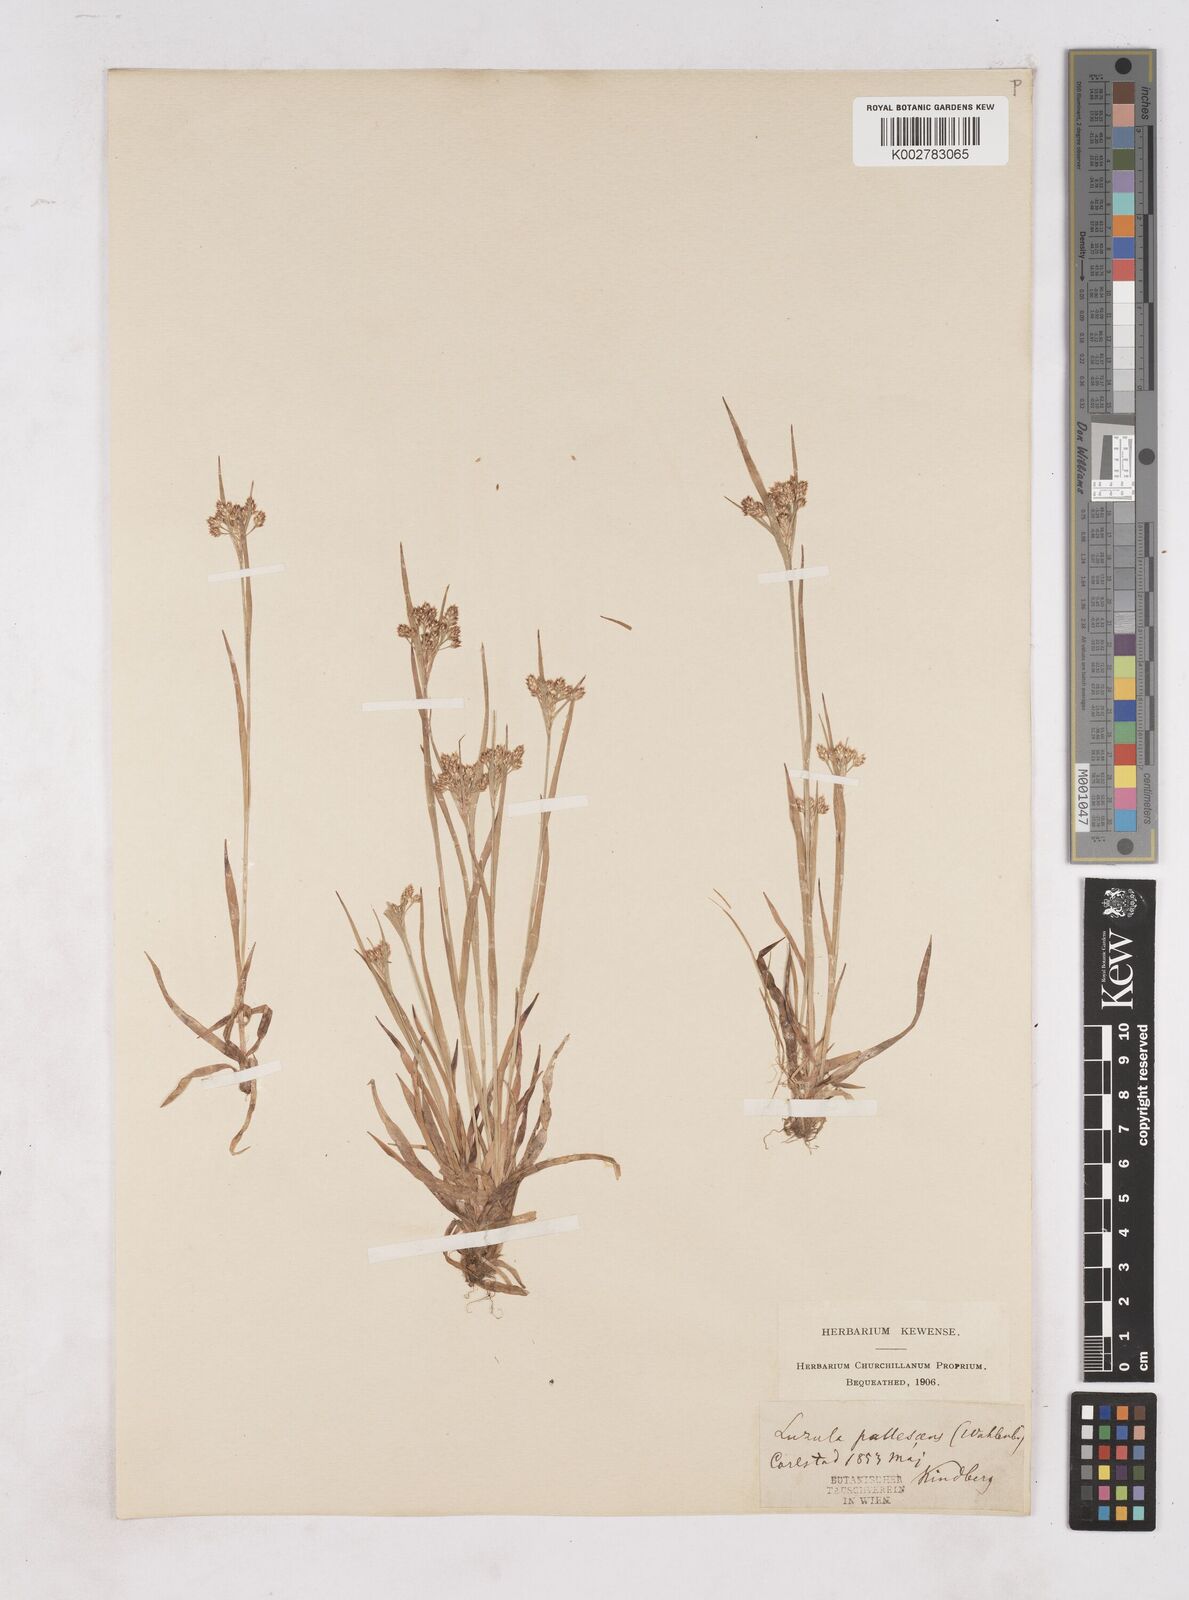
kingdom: Plantae
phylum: Tracheophyta
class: Liliopsida
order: Poales
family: Juncaceae
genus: Luzula
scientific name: Luzula pallescens
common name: Fen wood-rush
